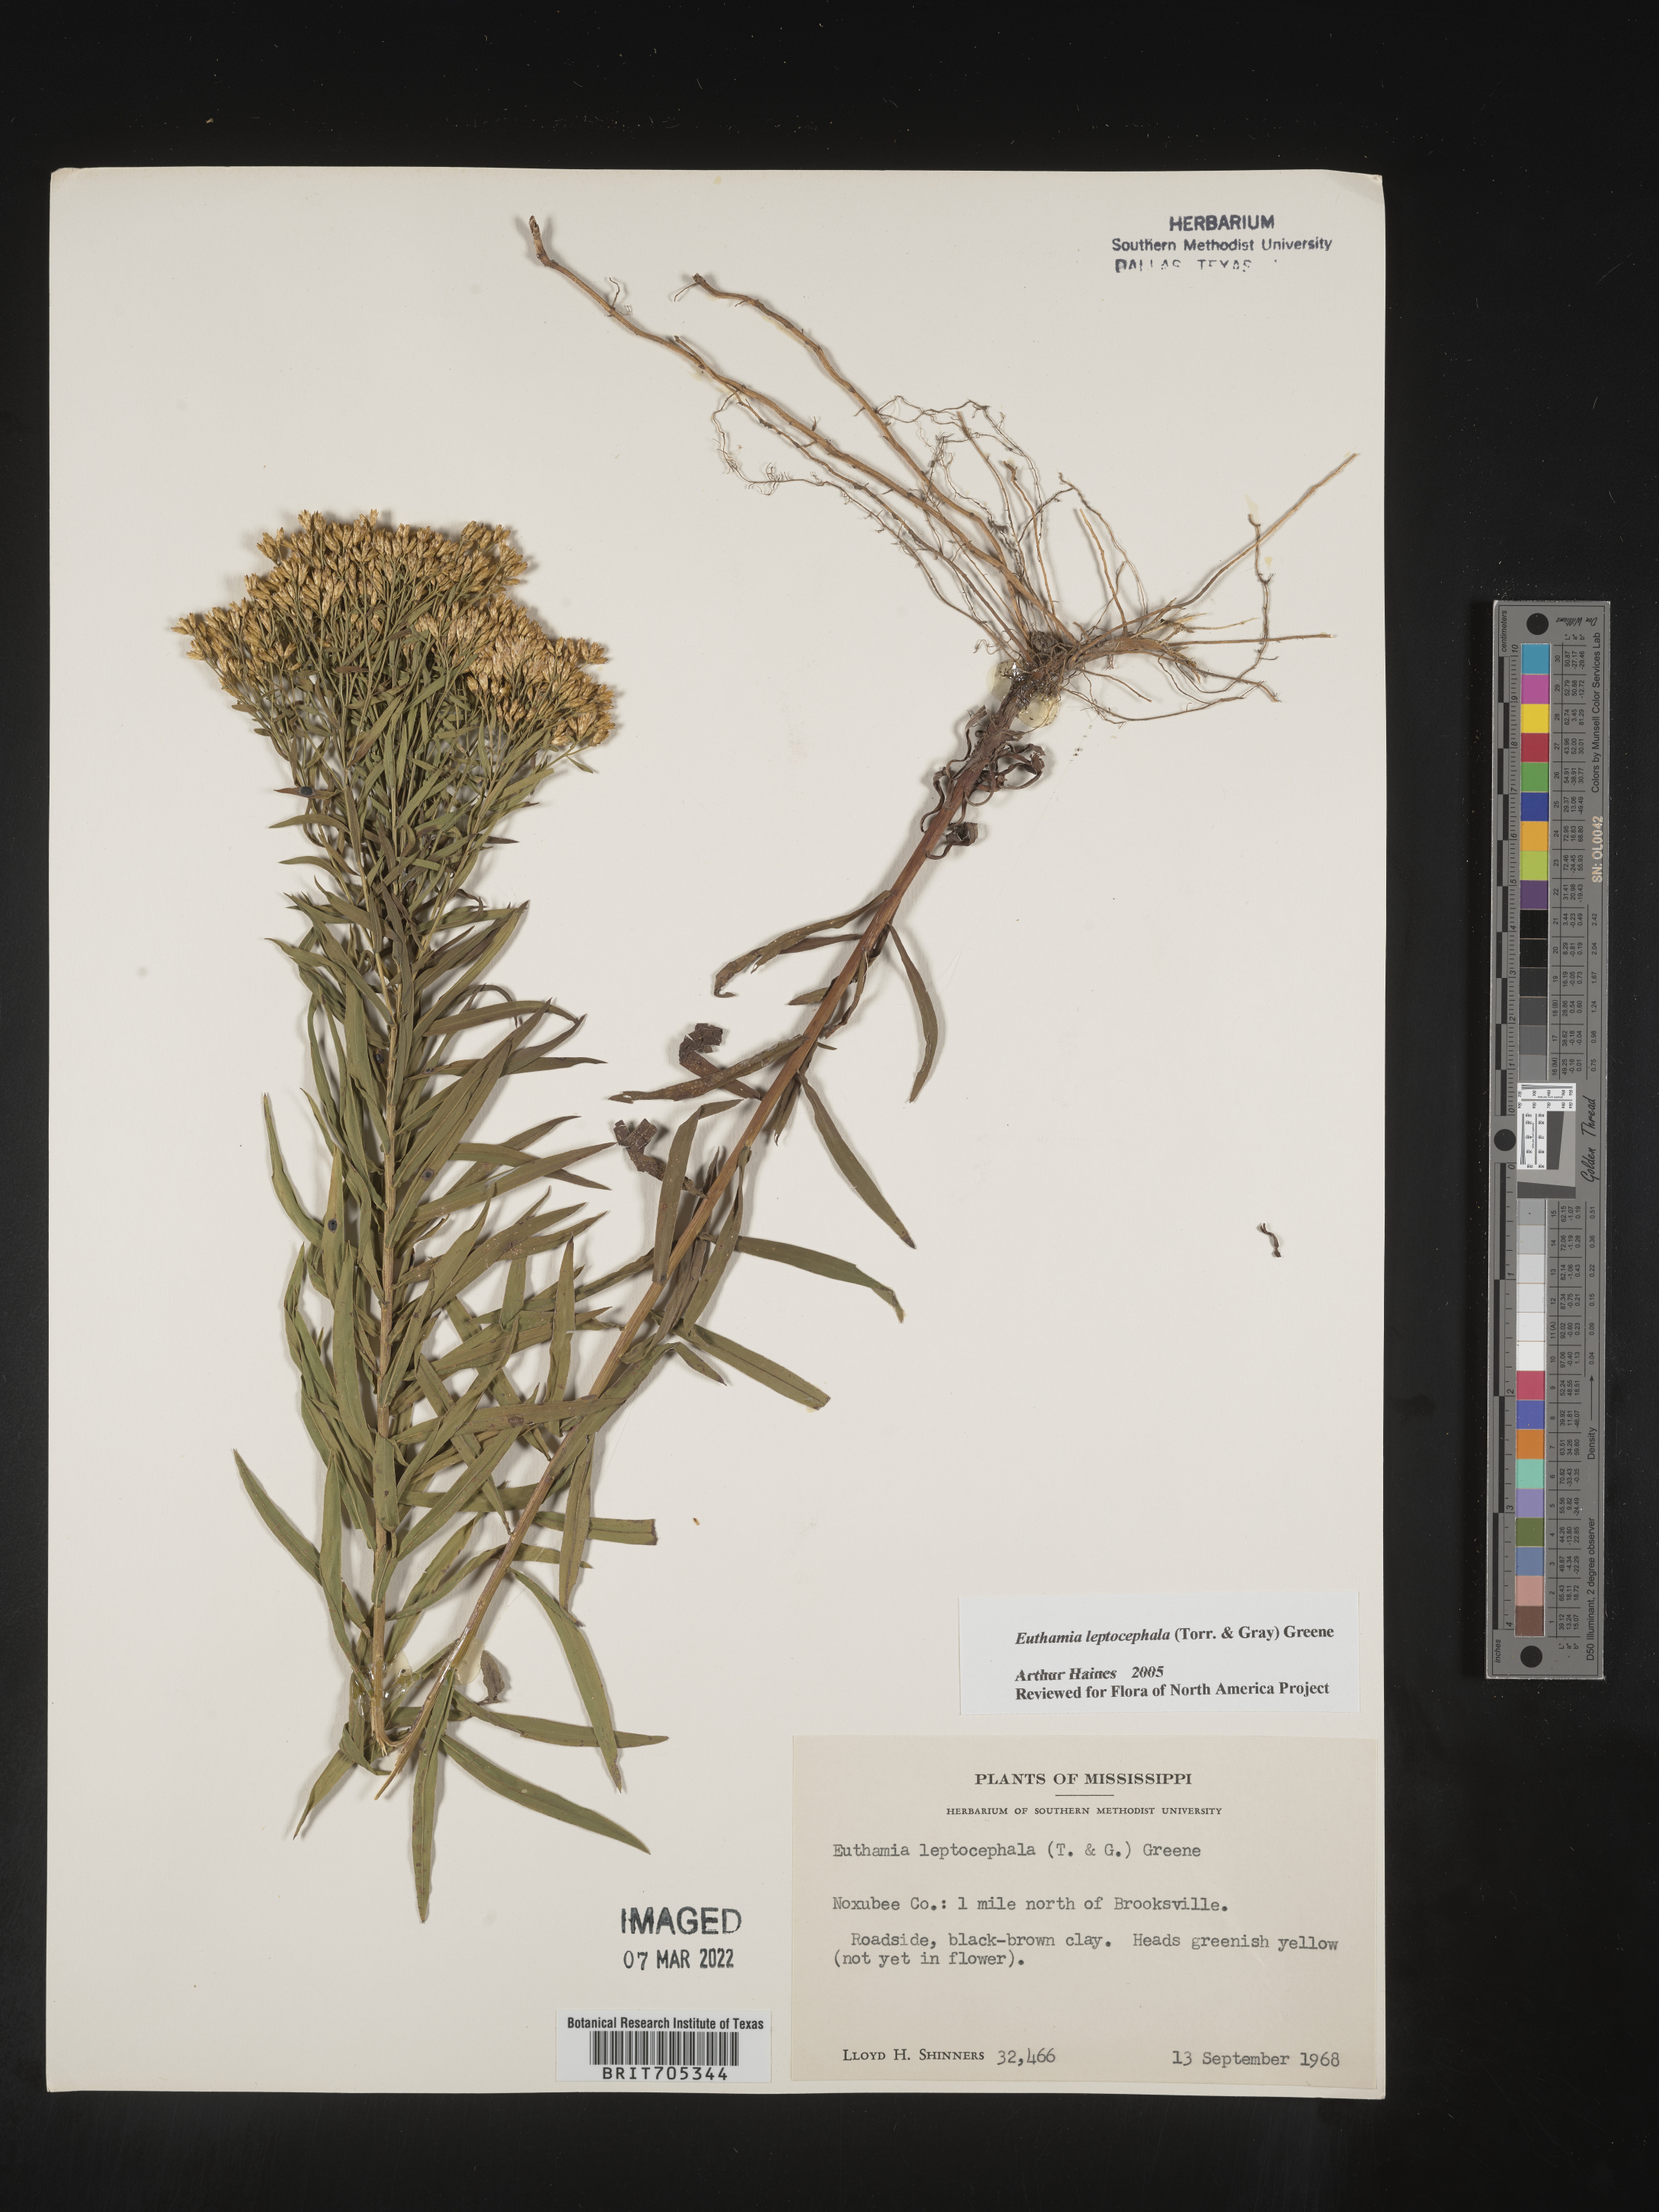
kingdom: Plantae
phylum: Tracheophyta
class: Magnoliopsida
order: Asterales
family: Asteraceae
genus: Euthamia
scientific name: Euthamia leptocephala
